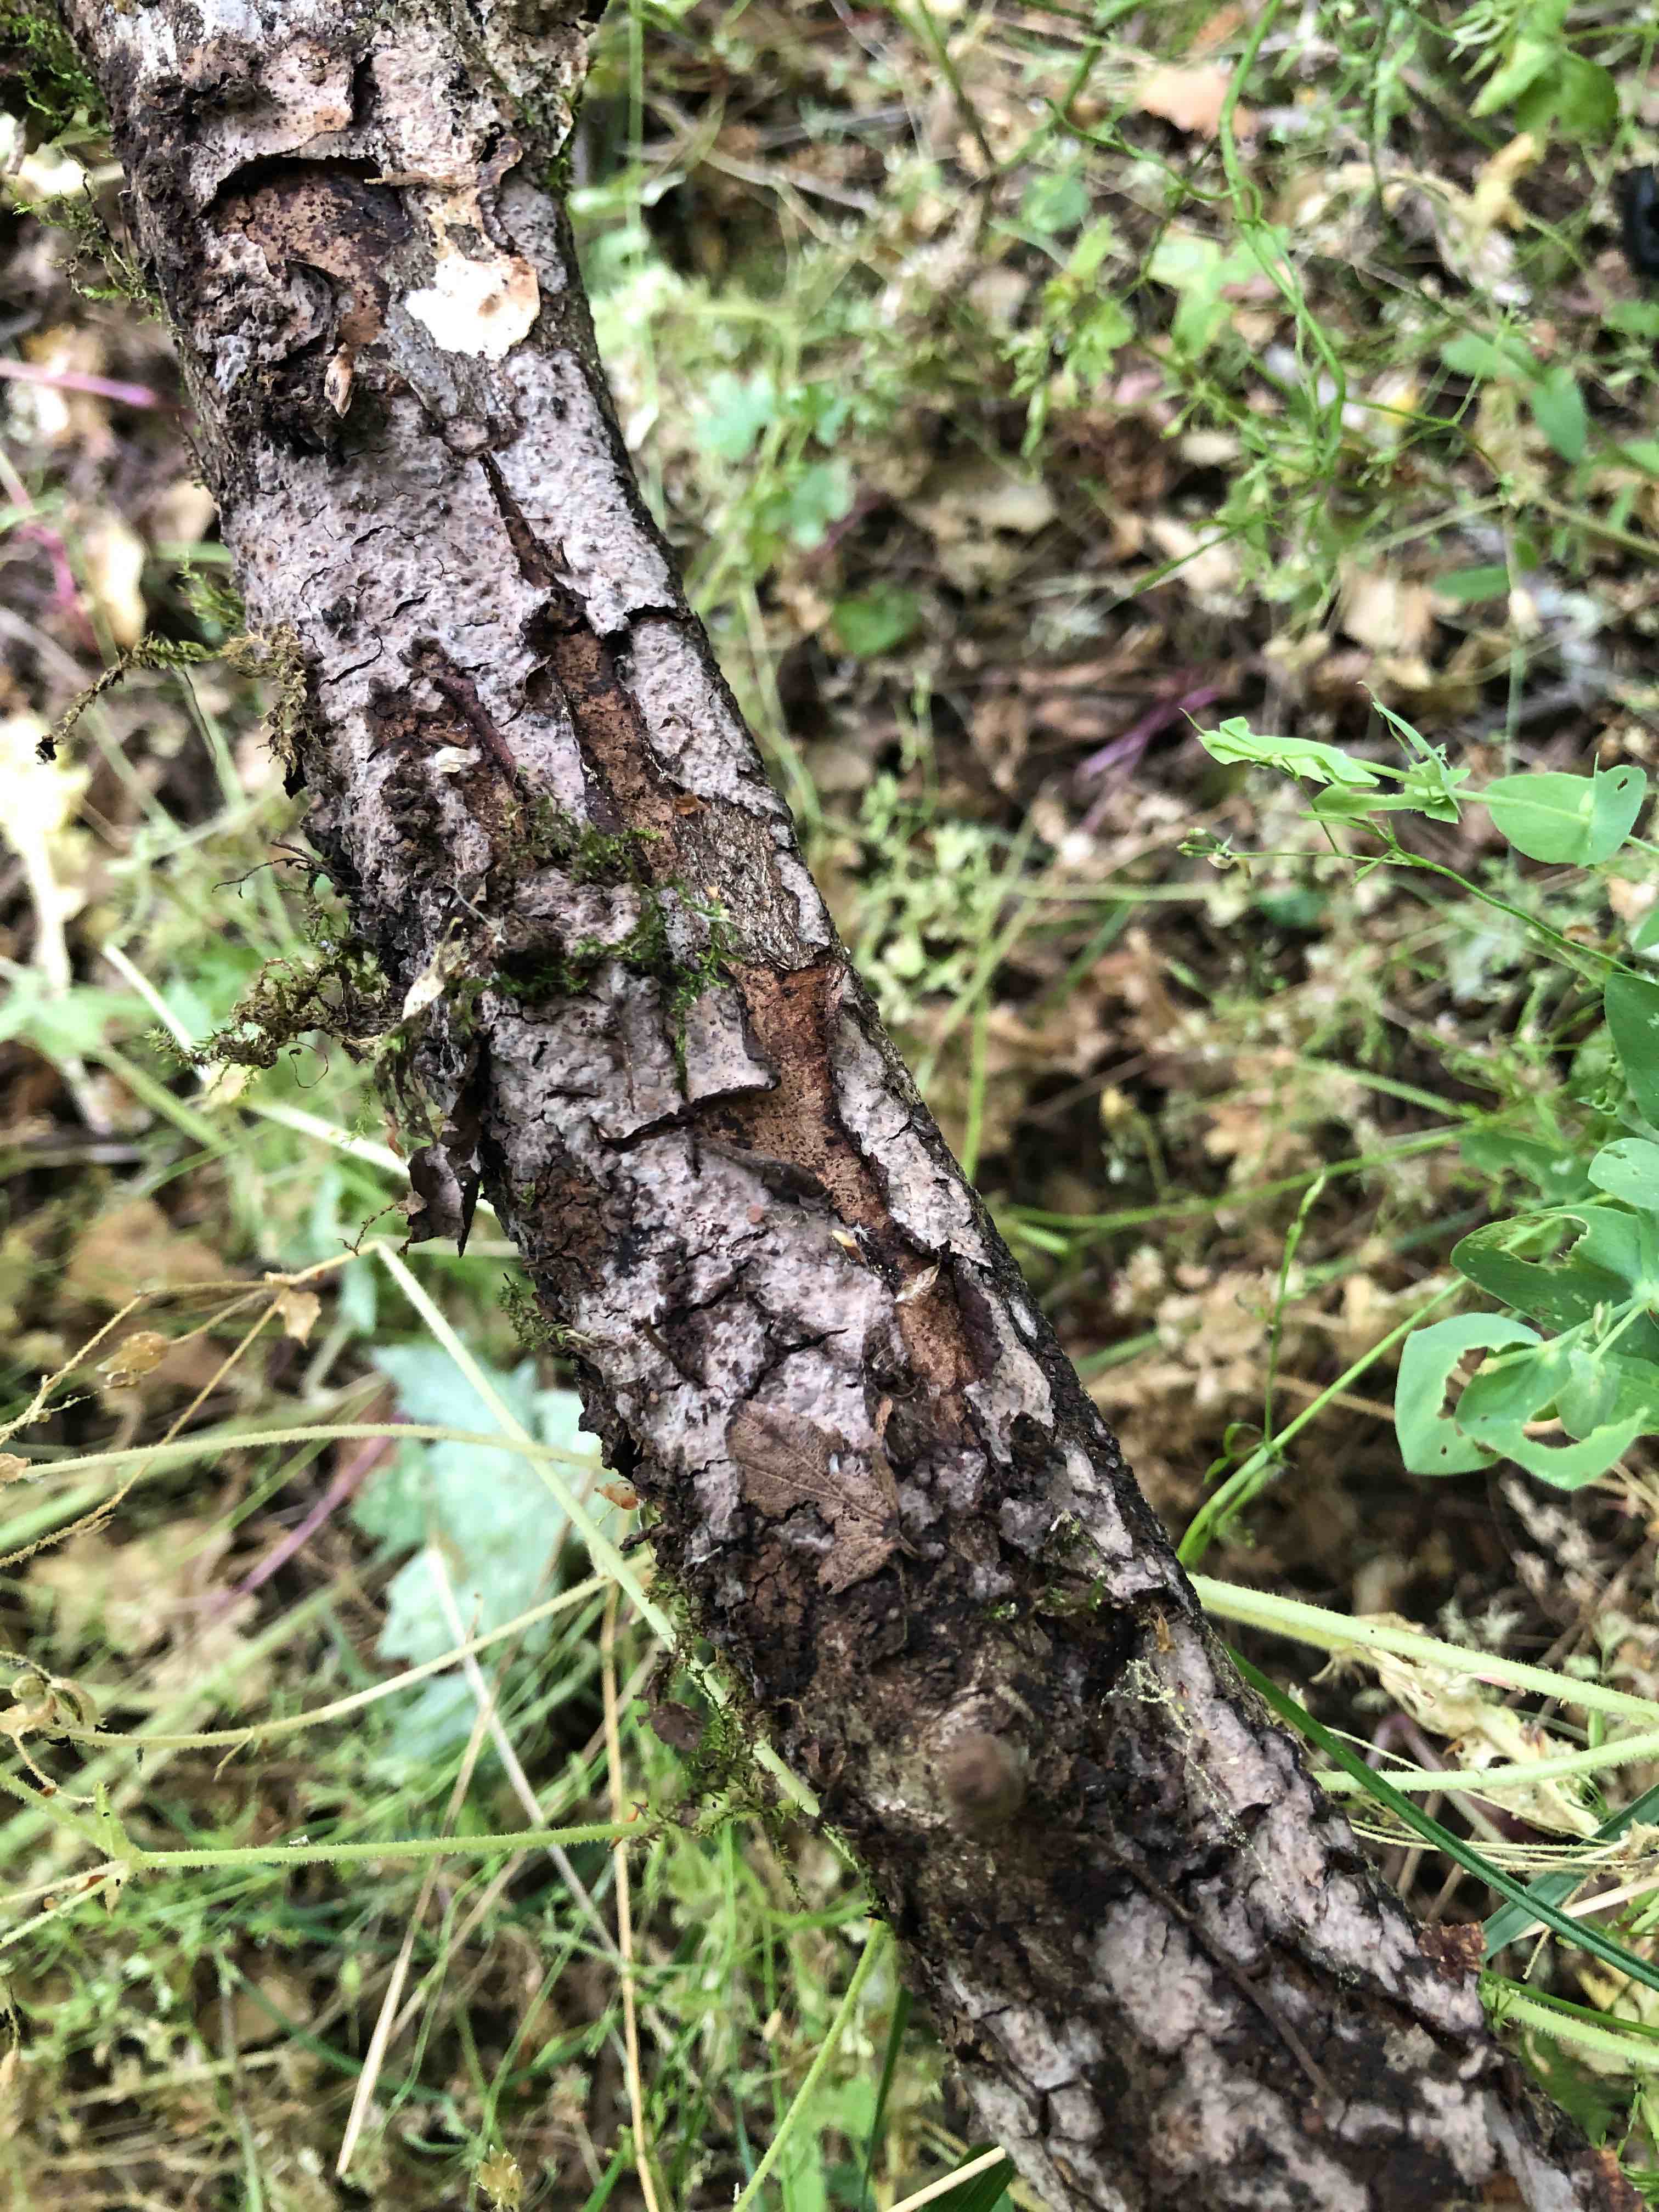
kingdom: Fungi
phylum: Basidiomycota
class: Agaricomycetes
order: Russulales
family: Peniophoraceae
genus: Peniophora
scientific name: Peniophora quercina
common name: ege-voksskind
